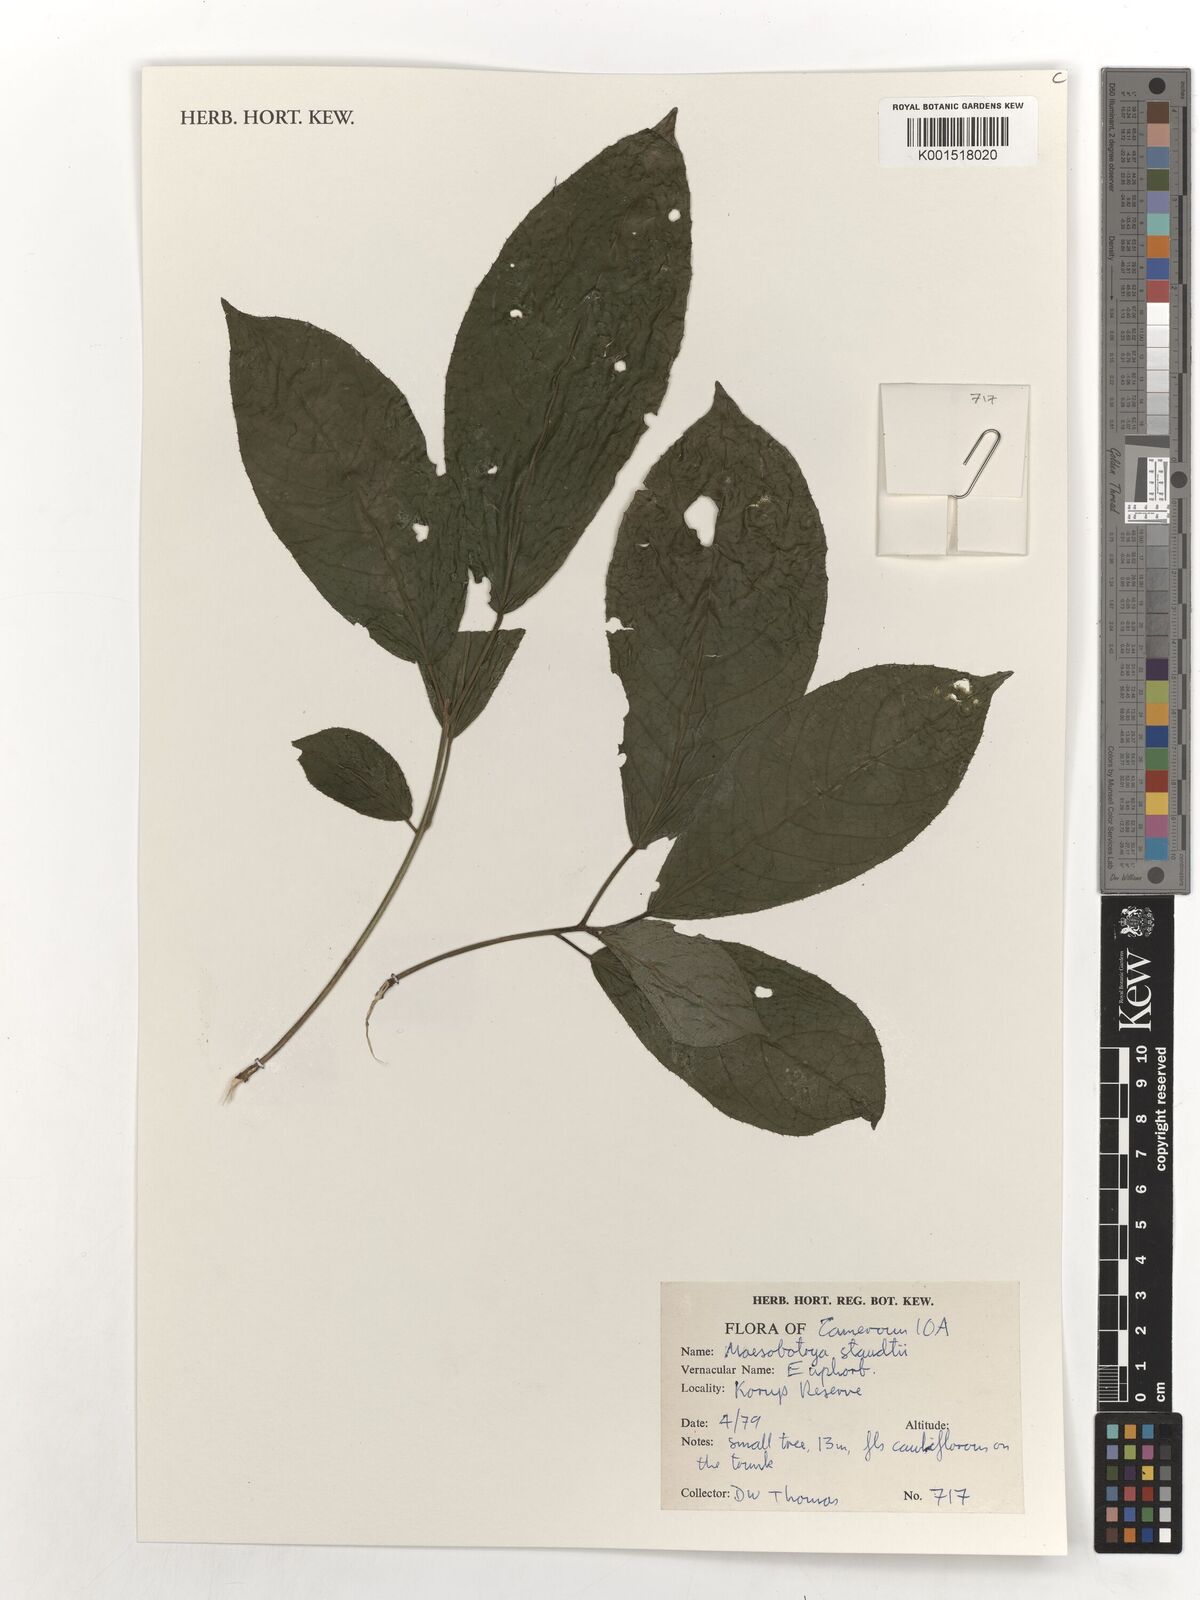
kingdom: Plantae
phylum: Tracheophyta
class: Magnoliopsida
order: Malpighiales
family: Phyllanthaceae
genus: Maesobotrya
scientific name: Maesobotrya staudtii
